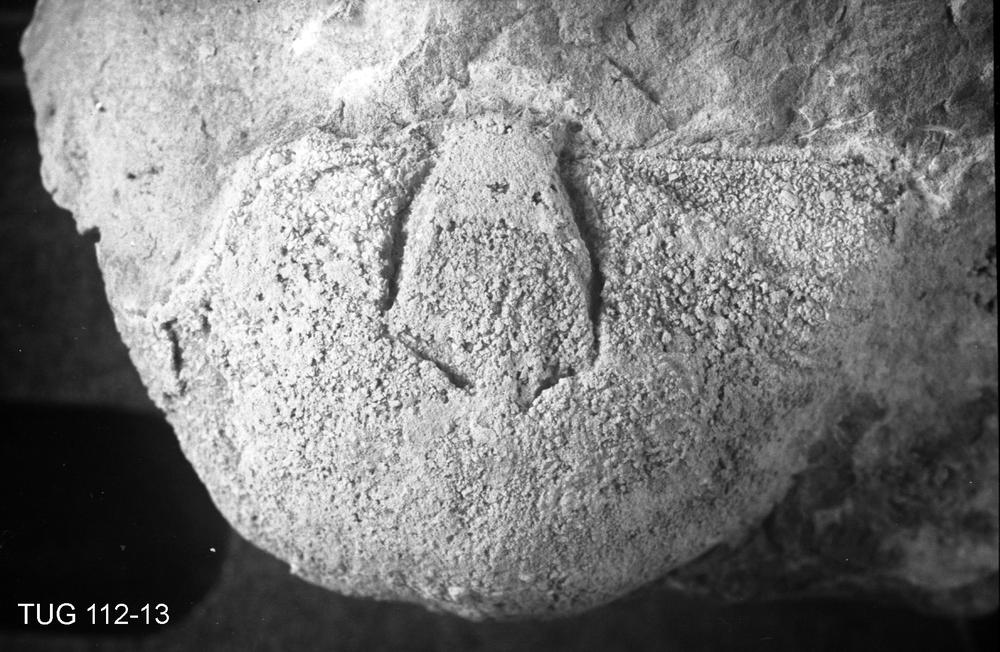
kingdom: Animalia
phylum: Brachiopoda
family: Rafinesquinidae
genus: Kiaeromena
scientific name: Kiaeromena
